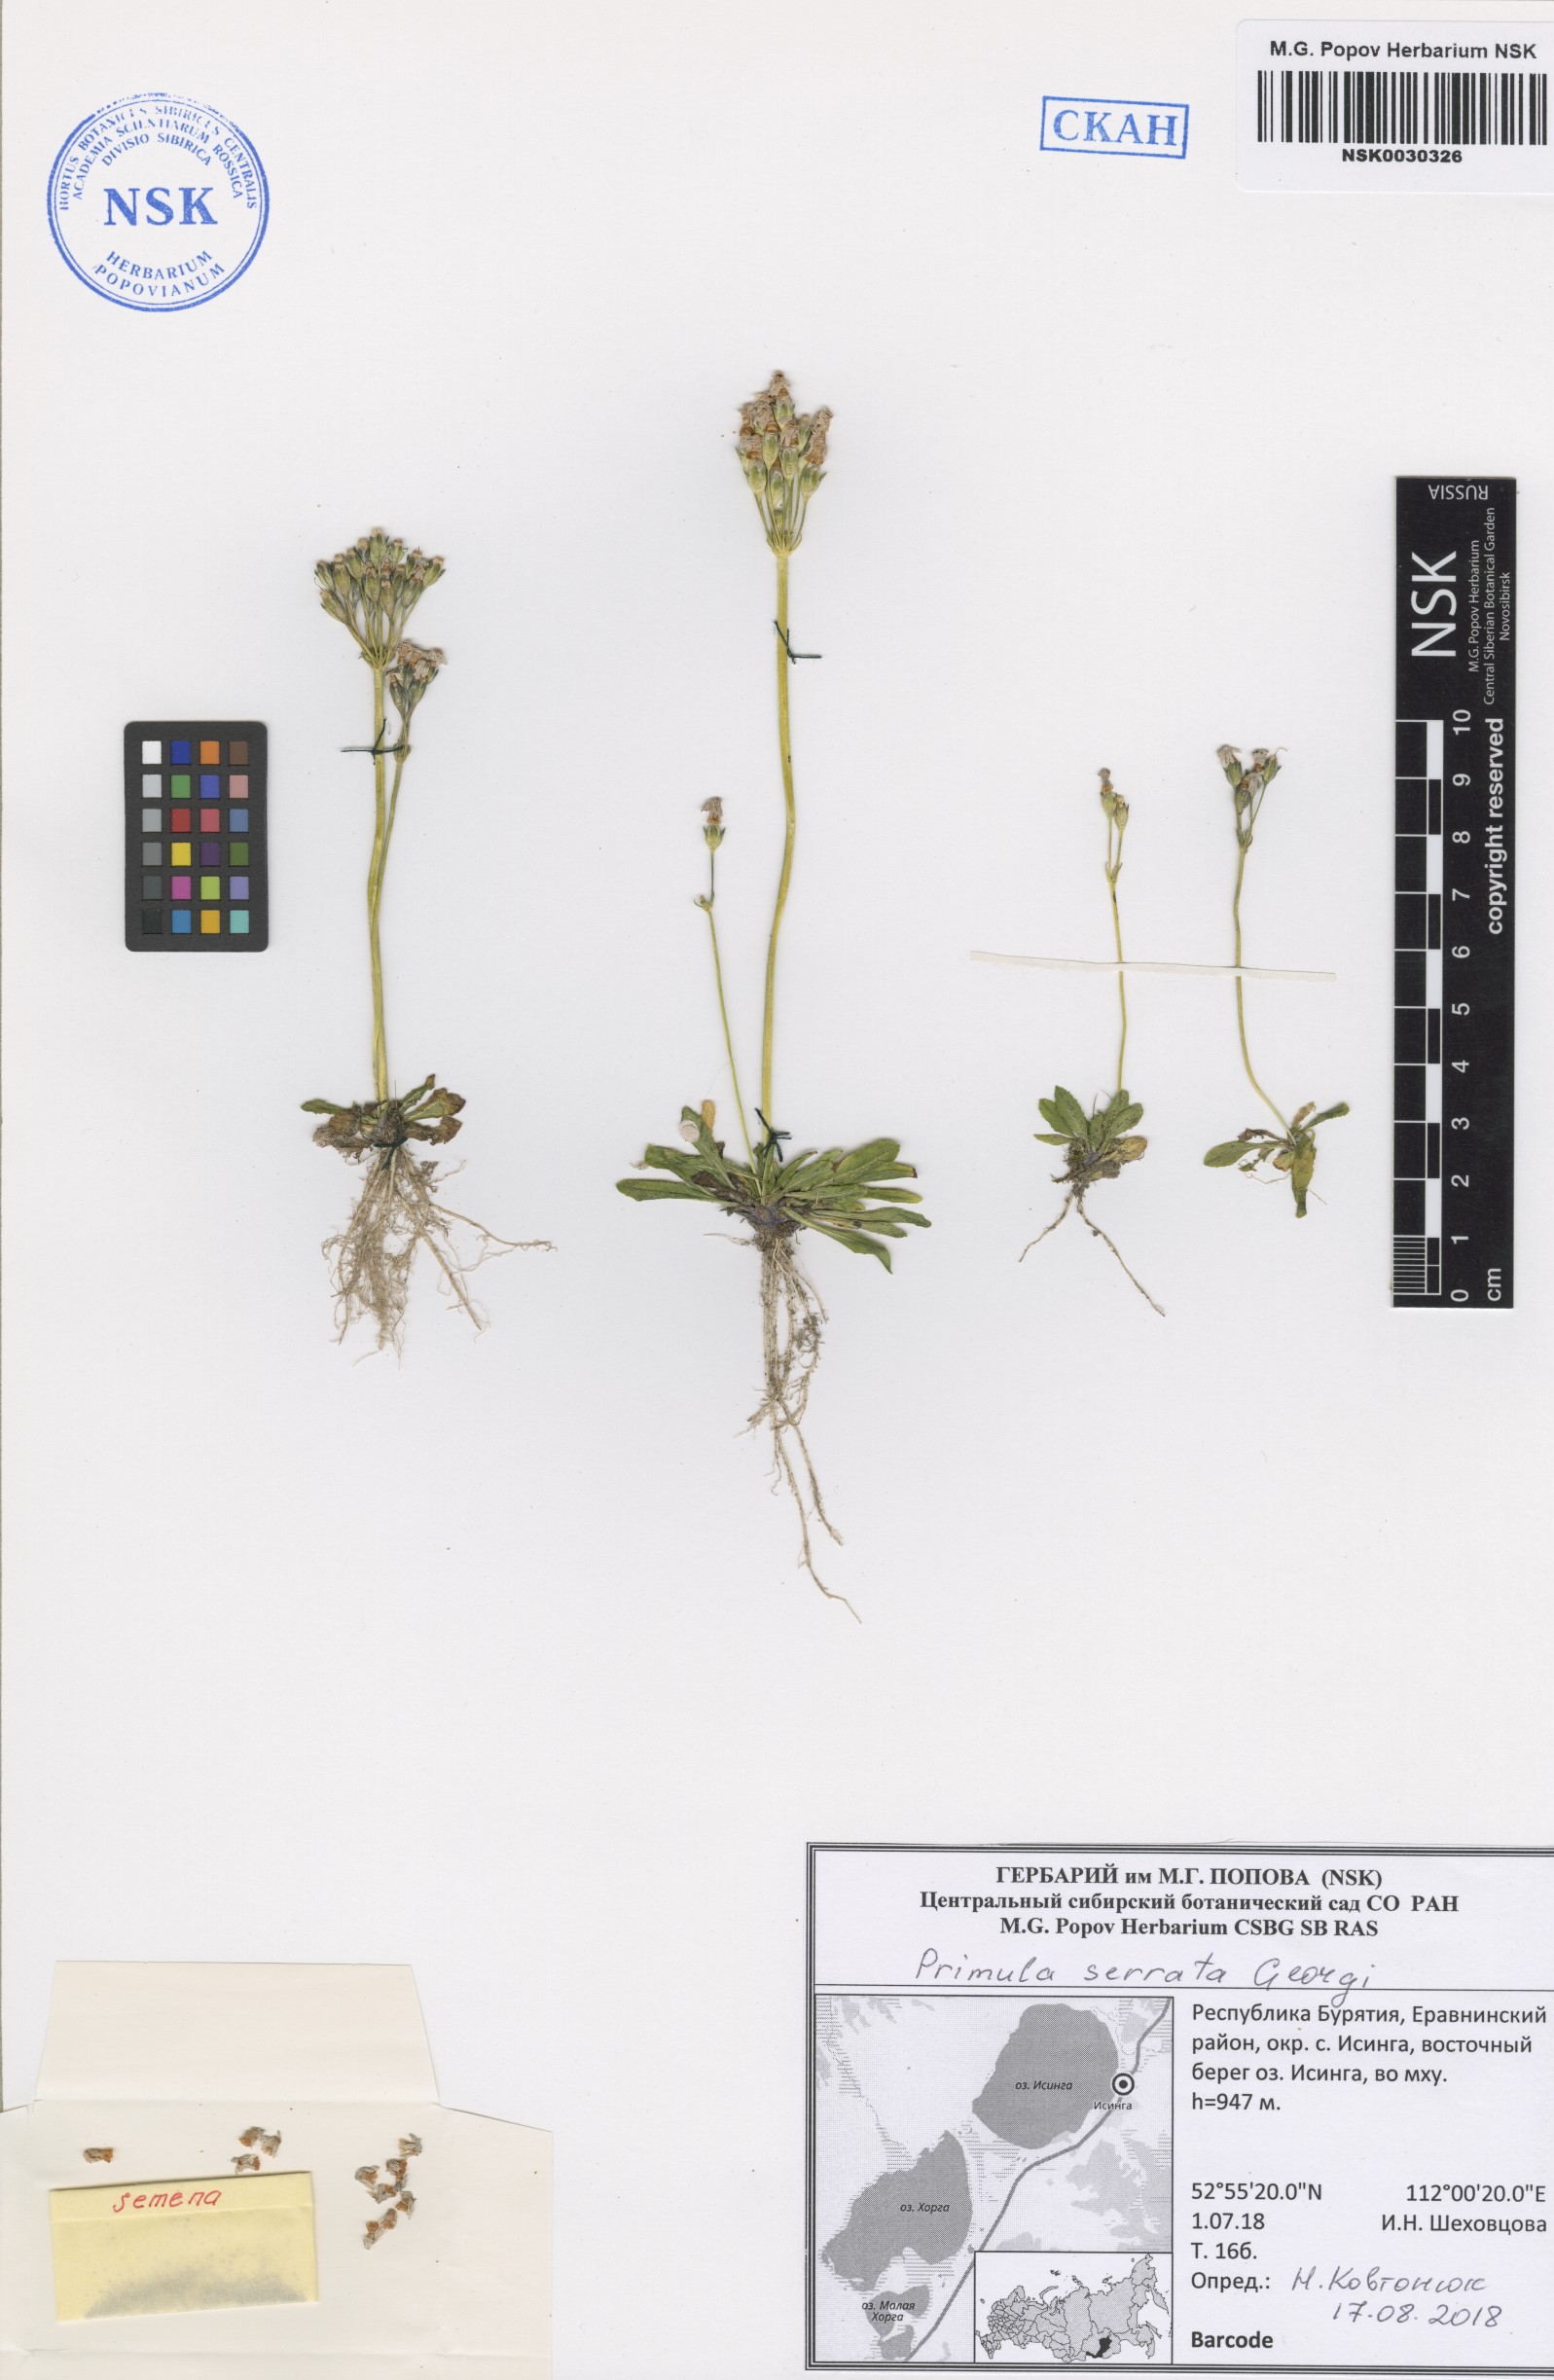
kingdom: Plantae
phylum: Tracheophyta
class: Magnoliopsida
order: Ericales
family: Primulaceae
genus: Primula
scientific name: Primula serrata
